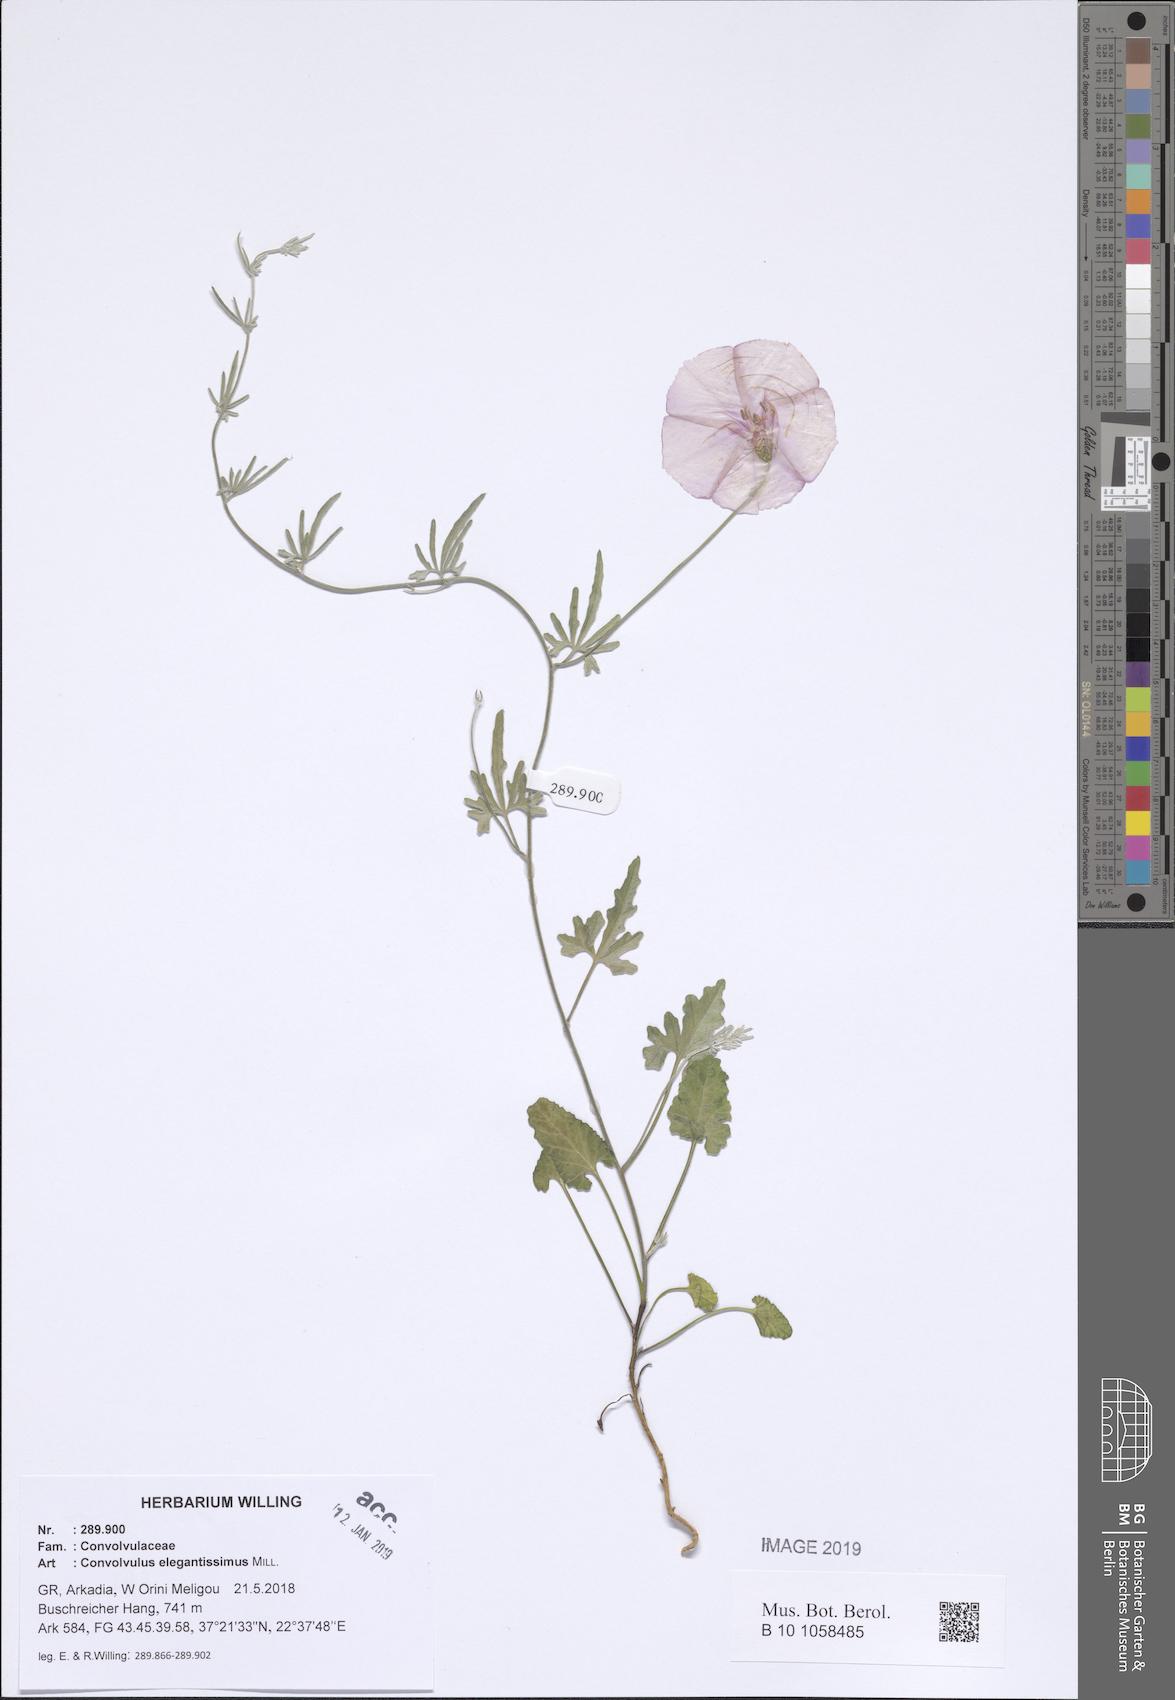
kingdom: Plantae
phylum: Tracheophyta
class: Magnoliopsida
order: Solanales
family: Convolvulaceae
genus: Convolvulus
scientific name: Convolvulus elegantissimus
